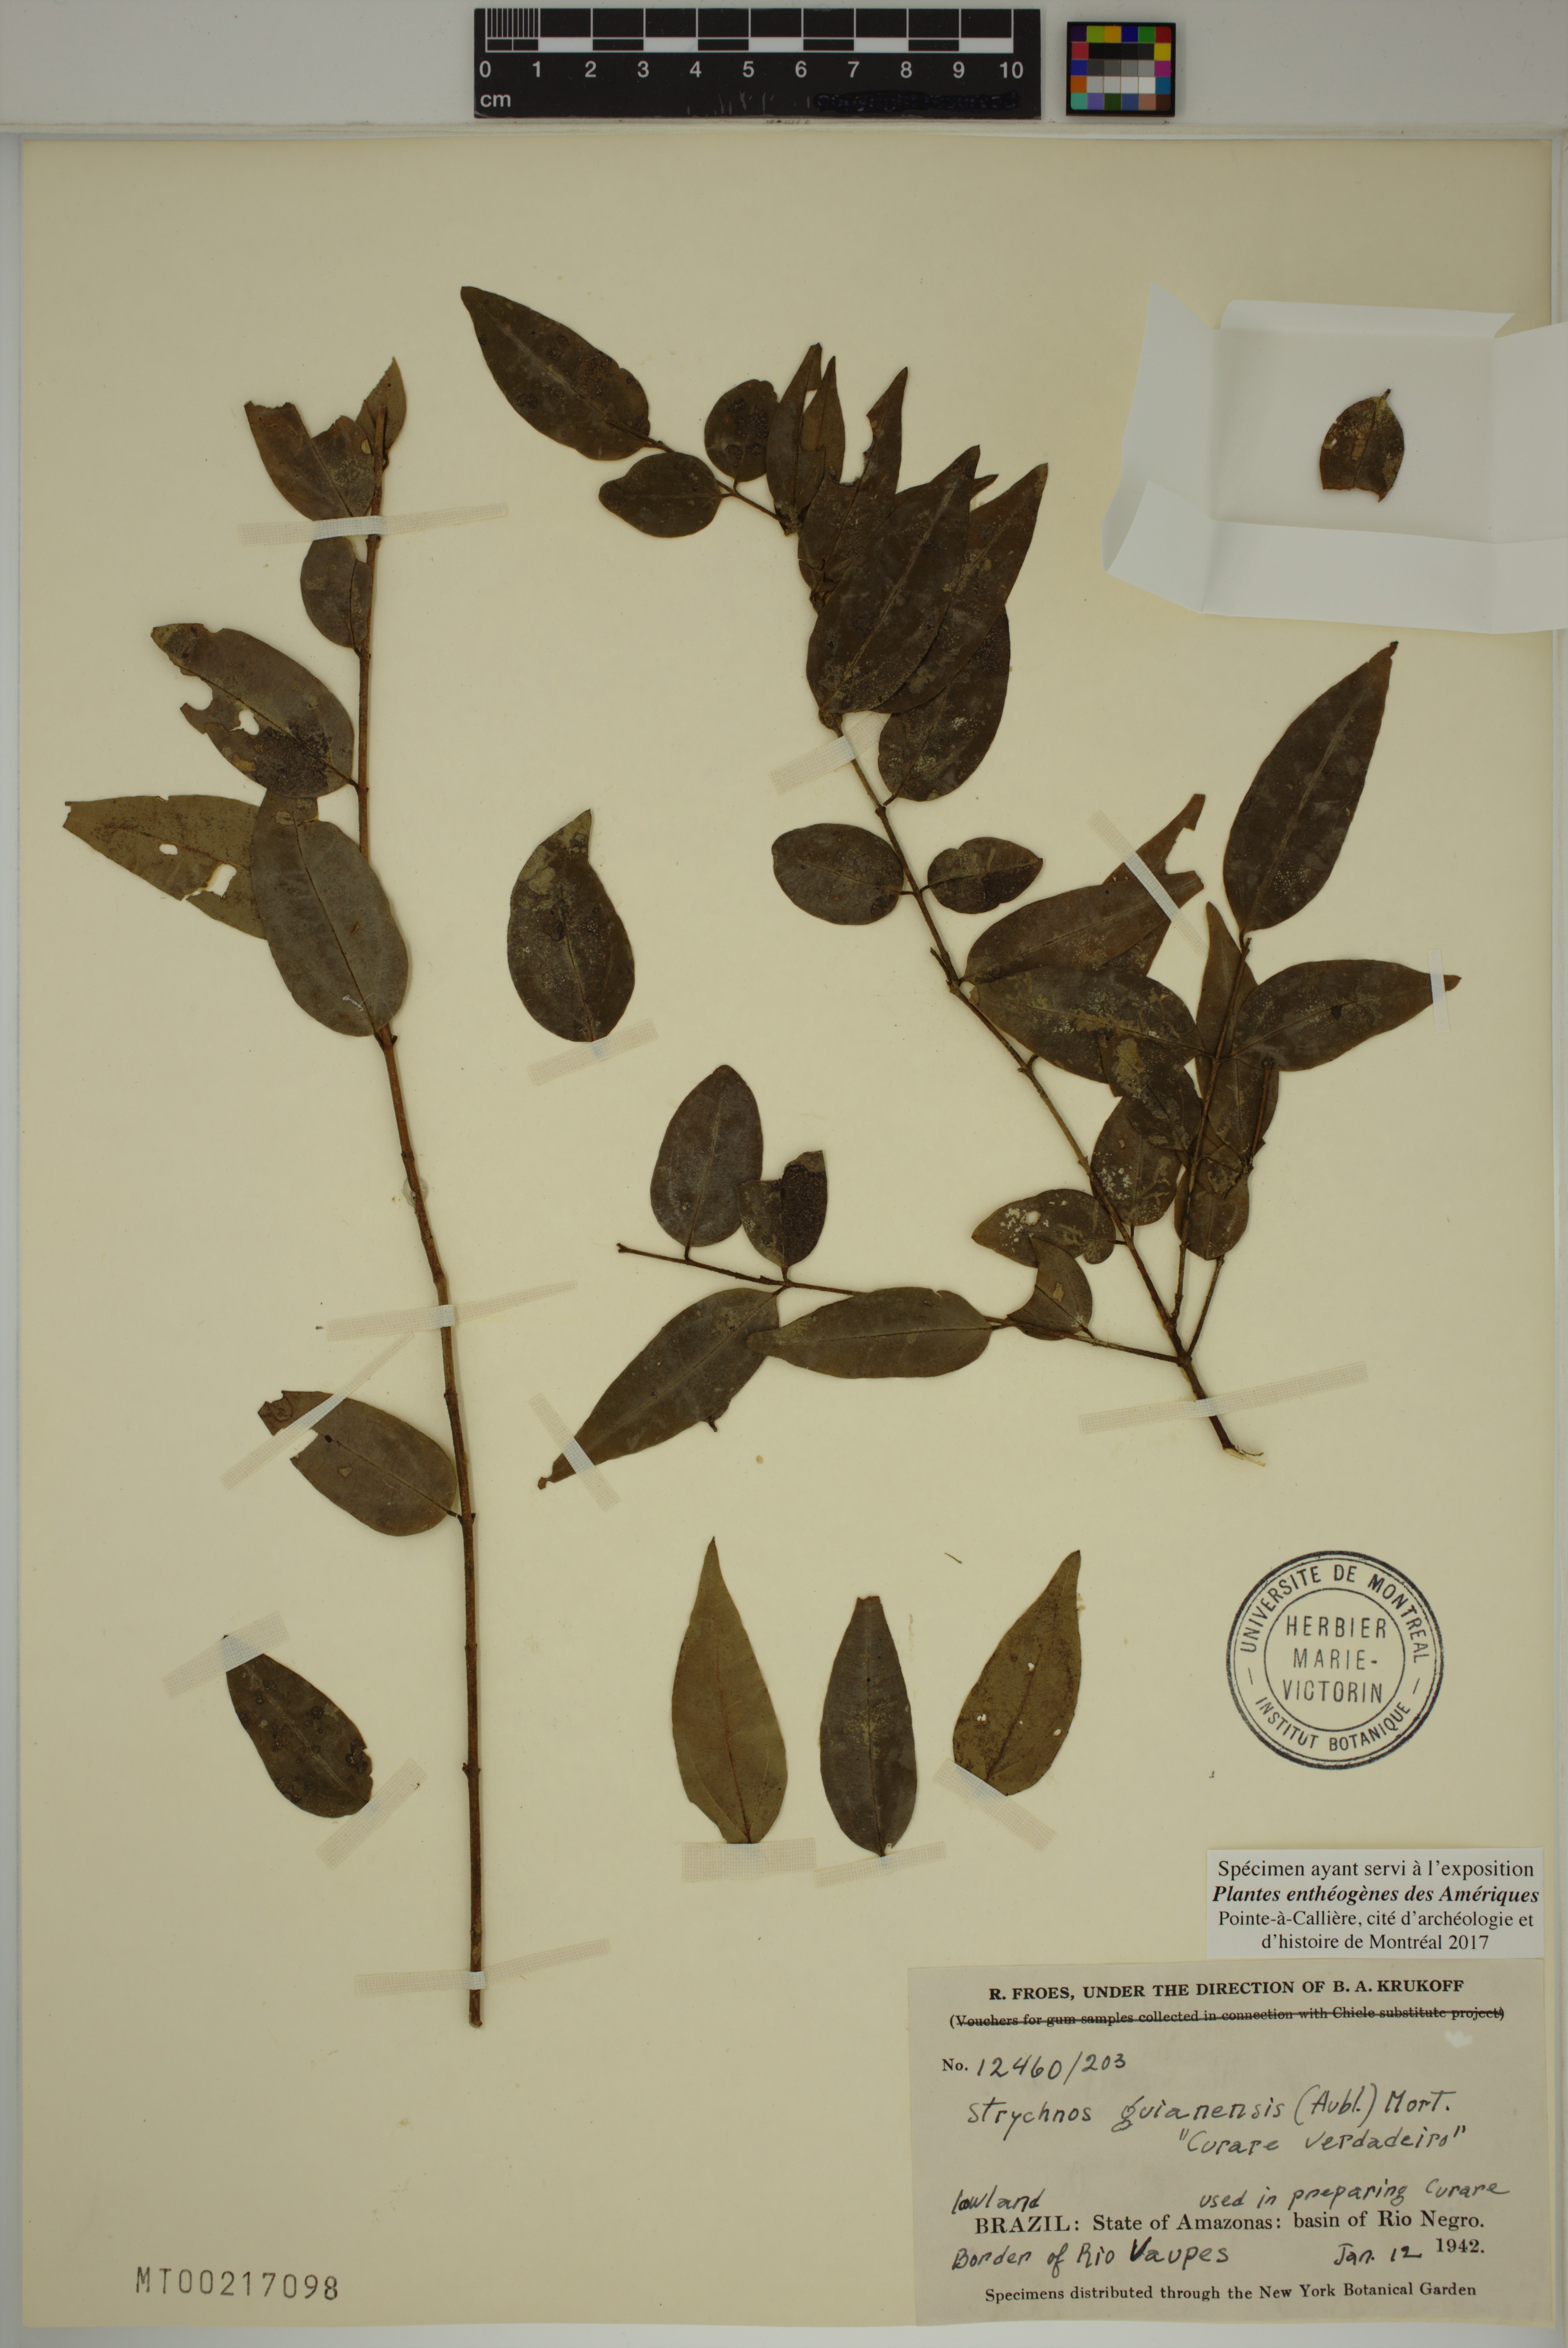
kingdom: Plantae
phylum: Tracheophyta
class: Magnoliopsida
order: Gentianales
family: Loganiaceae
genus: Strychnos
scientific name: Strychnos guianensis
